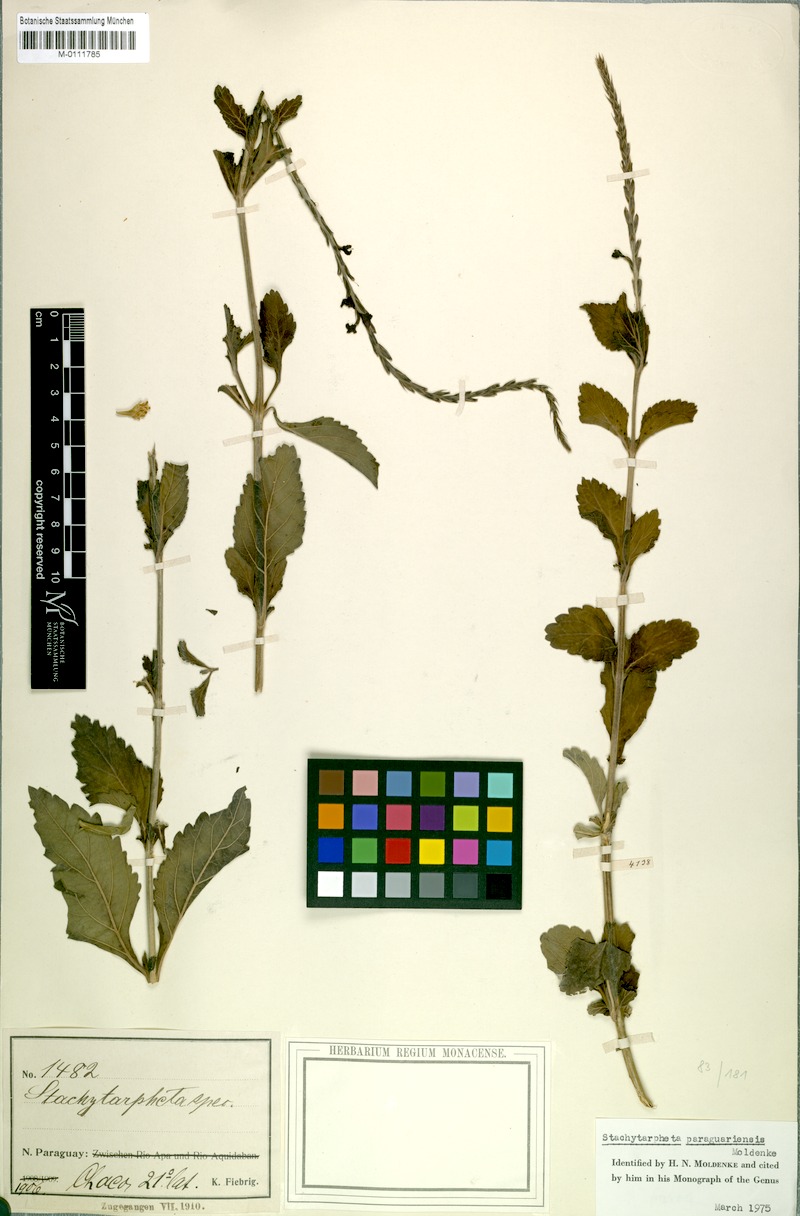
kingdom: Plantae
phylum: Tracheophyta
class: Magnoliopsida
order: Lamiales
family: Verbenaceae
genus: Stachytarpheta
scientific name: Stachytarpheta paraguariensis
